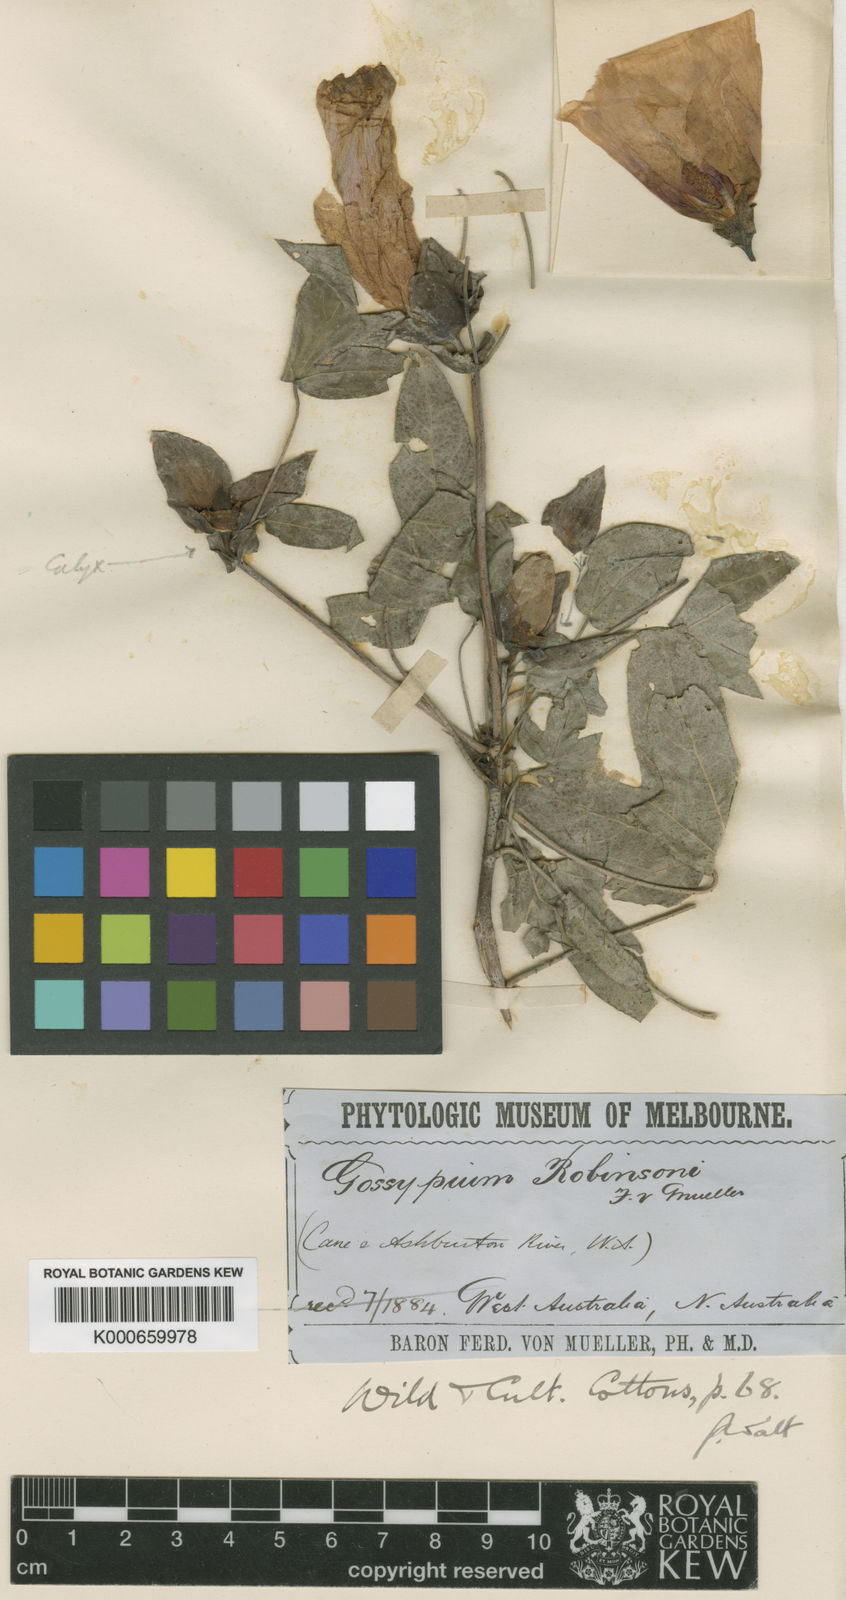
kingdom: Plantae
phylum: Tracheophyta
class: Magnoliopsida
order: Malvales
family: Malvaceae
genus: Gossypium
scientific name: Gossypium robinsonii
